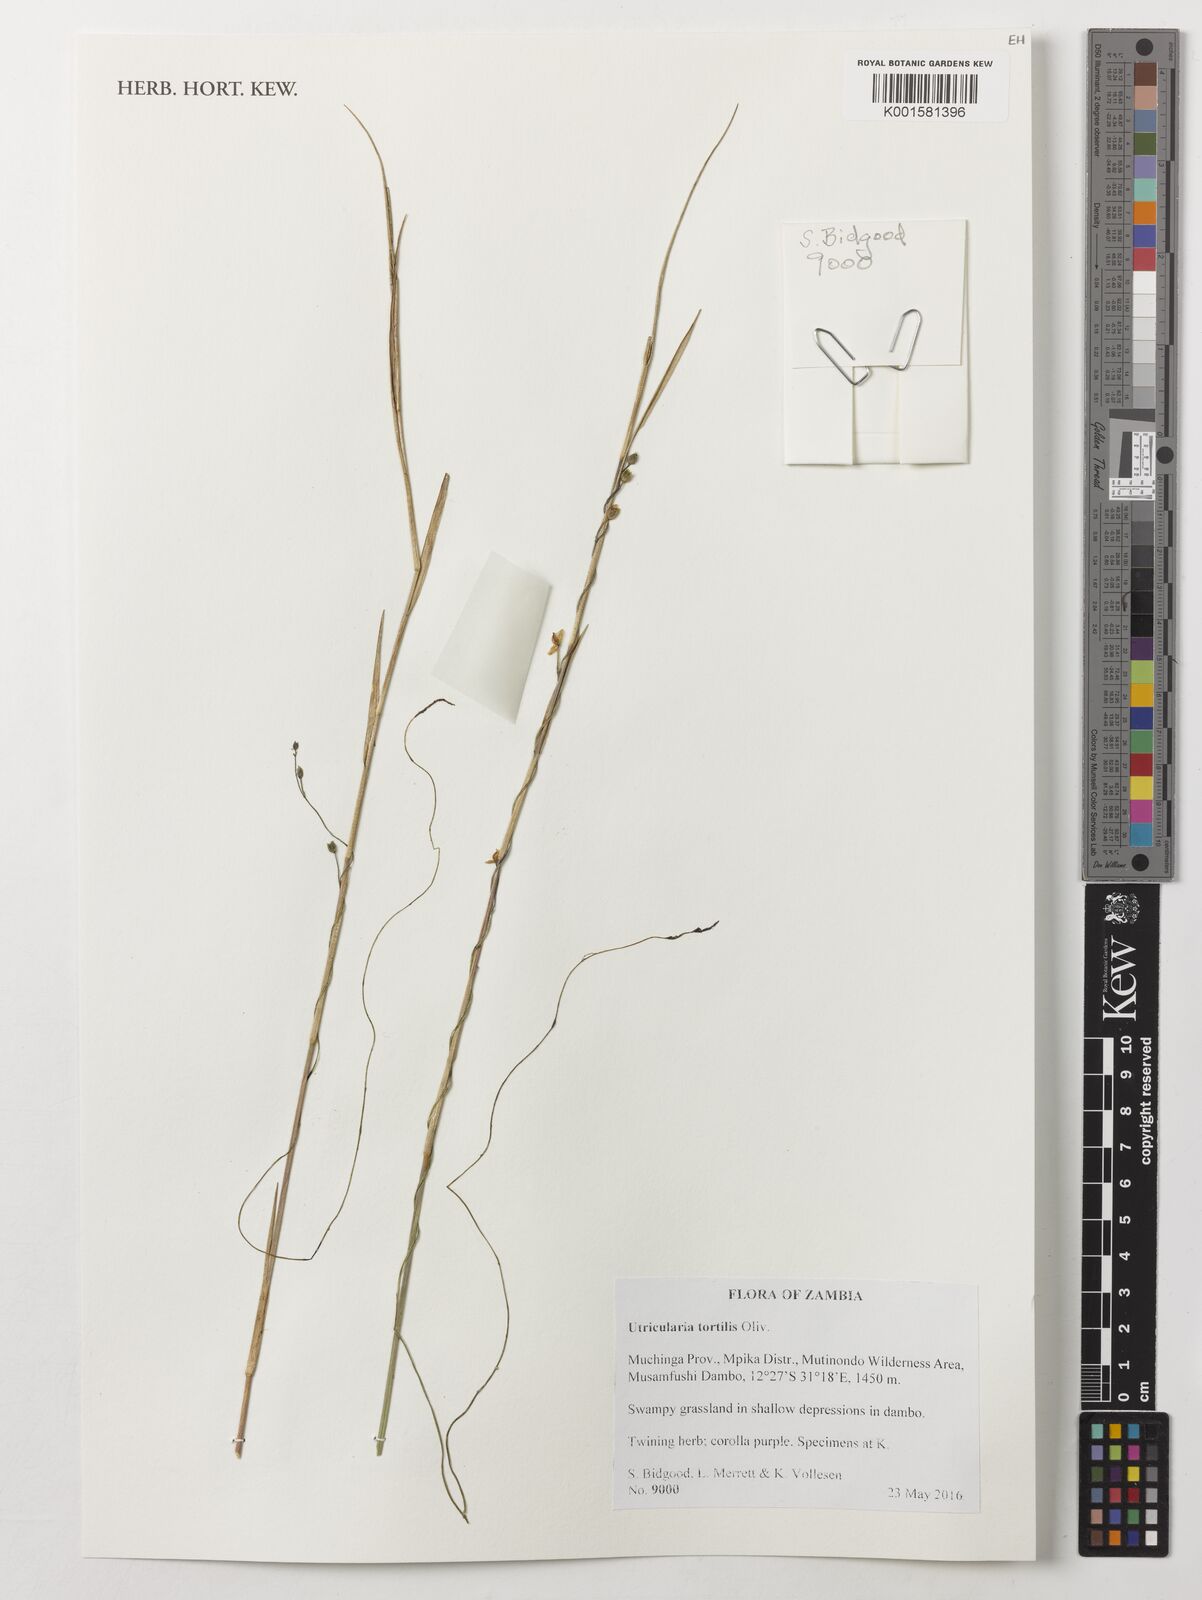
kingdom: Plantae
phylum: Tracheophyta
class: Magnoliopsida
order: Lamiales
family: Lentibulariaceae
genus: Utricularia
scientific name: Utricularia tortilis
